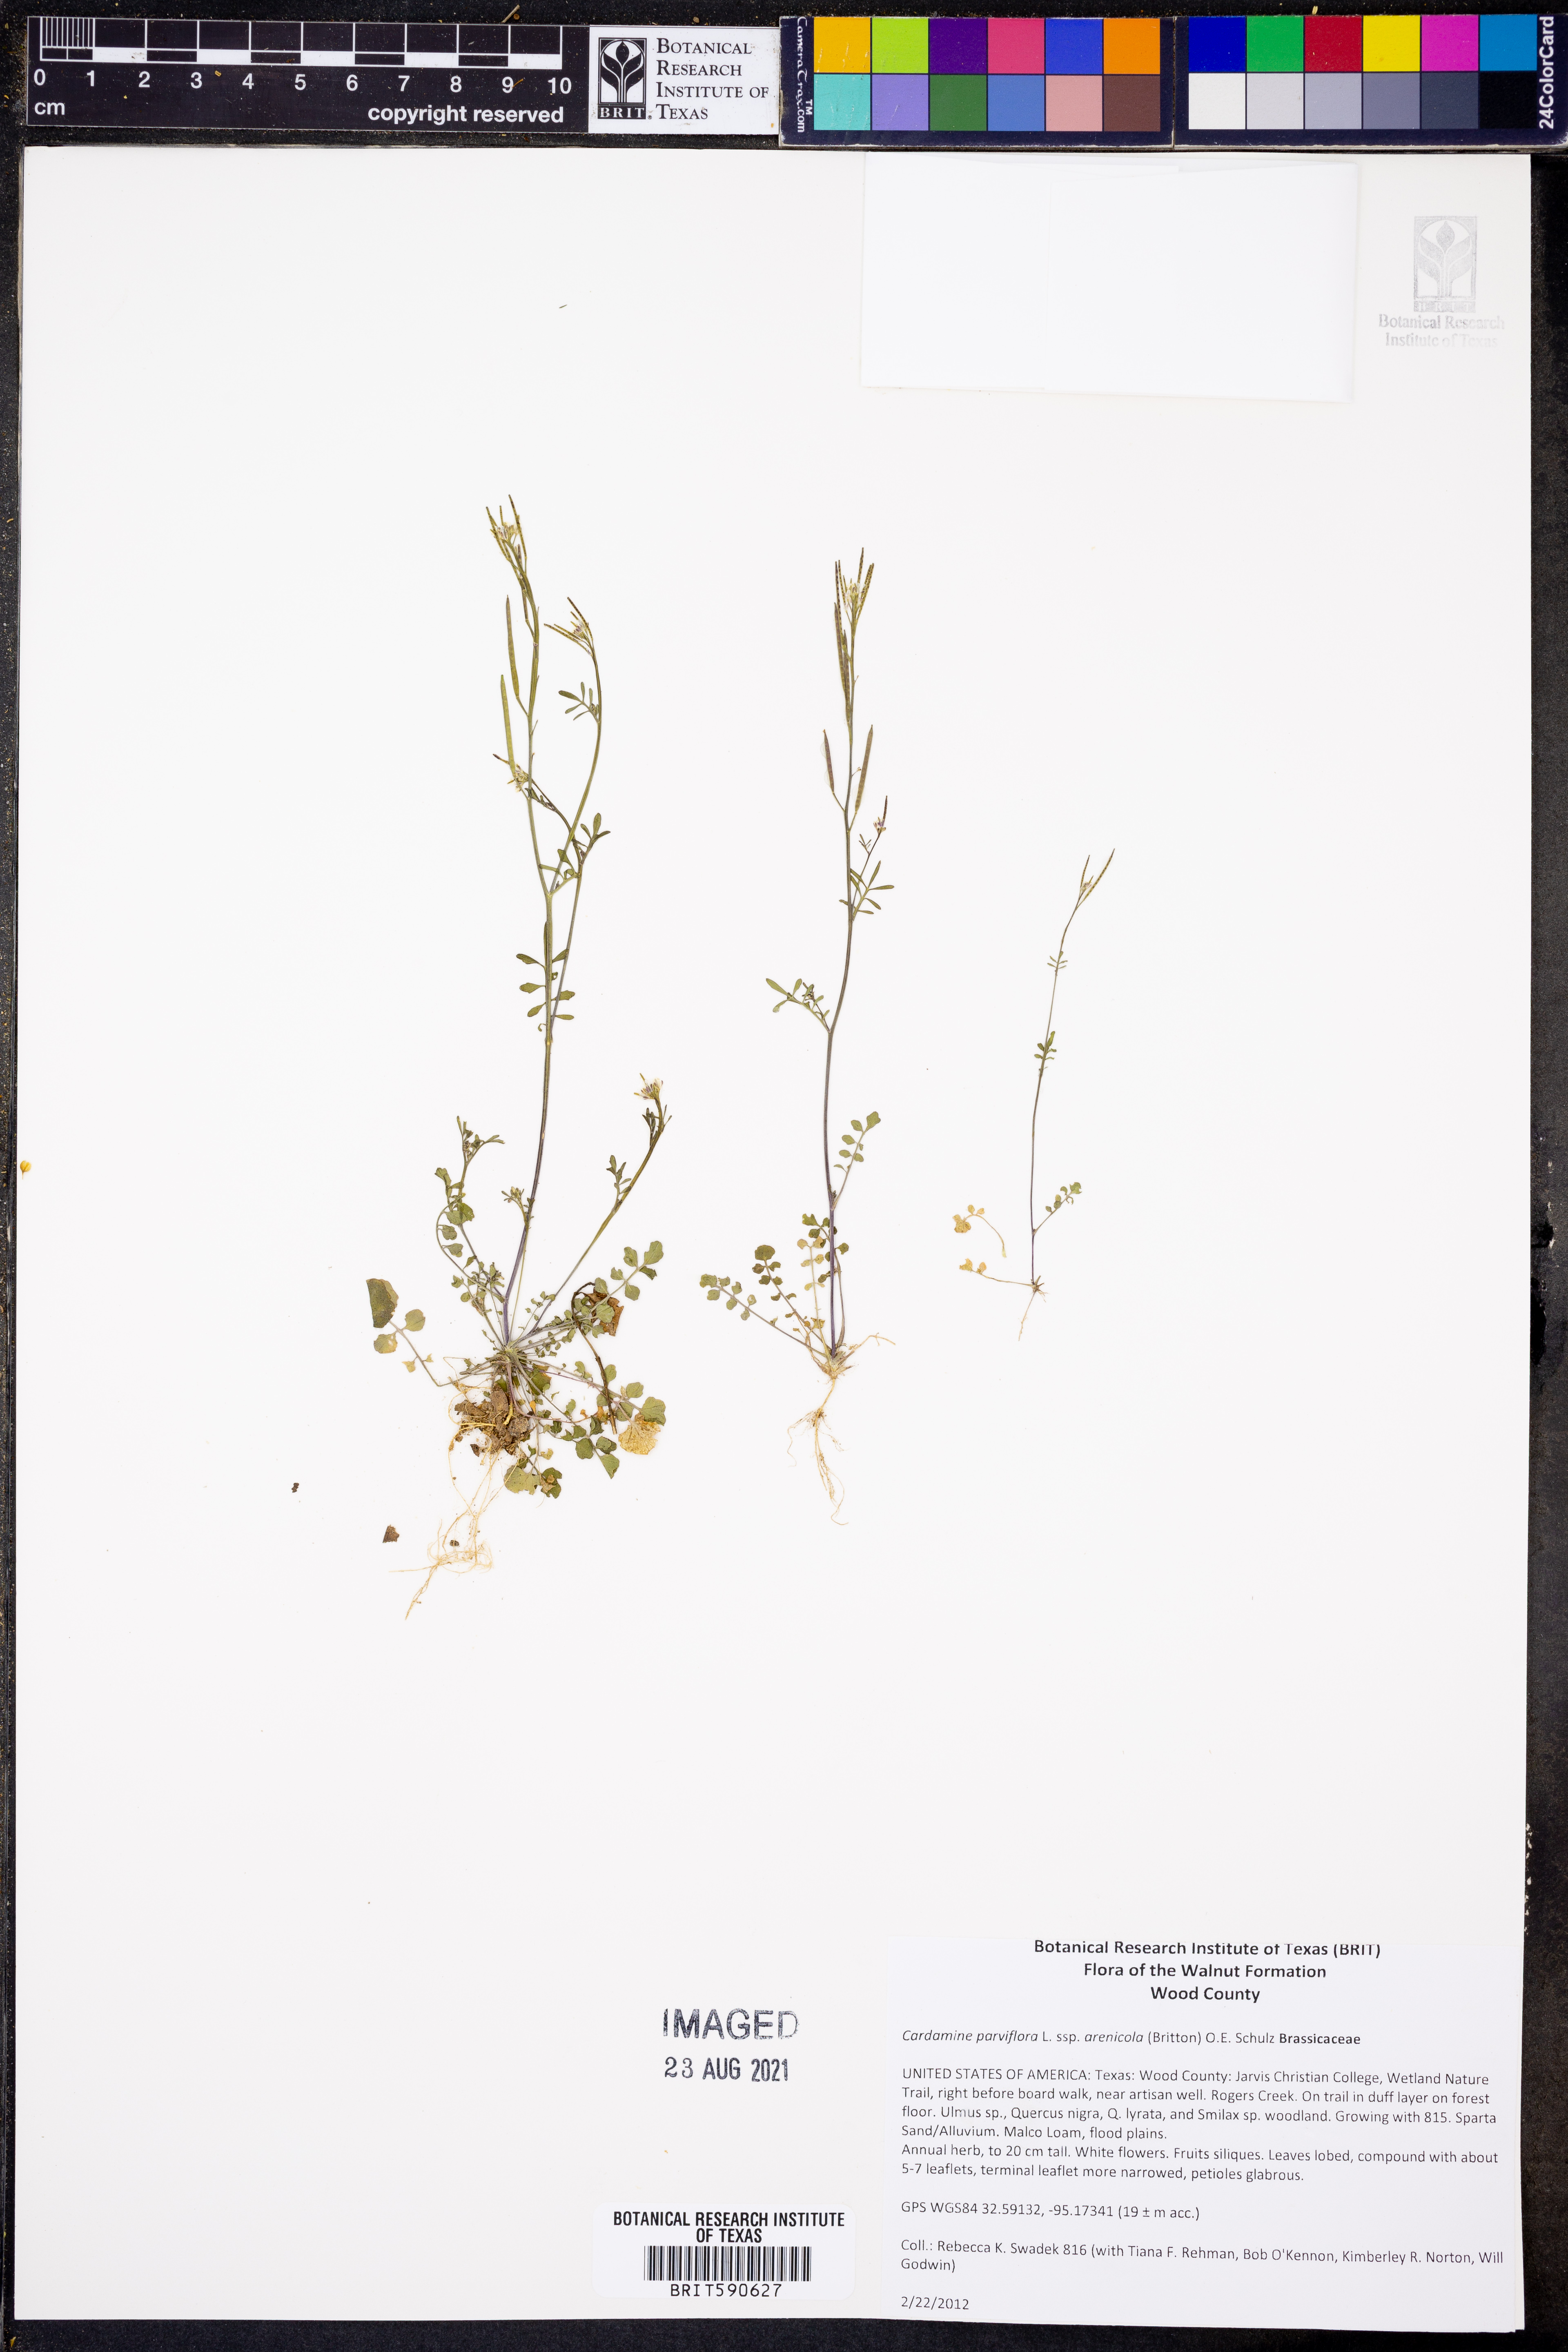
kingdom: Plantae
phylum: Tracheophyta
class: Magnoliopsida
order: Brassicales
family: Brassicaceae
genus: Cardamine
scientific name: Cardamine parviflora
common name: Sand bittercress
